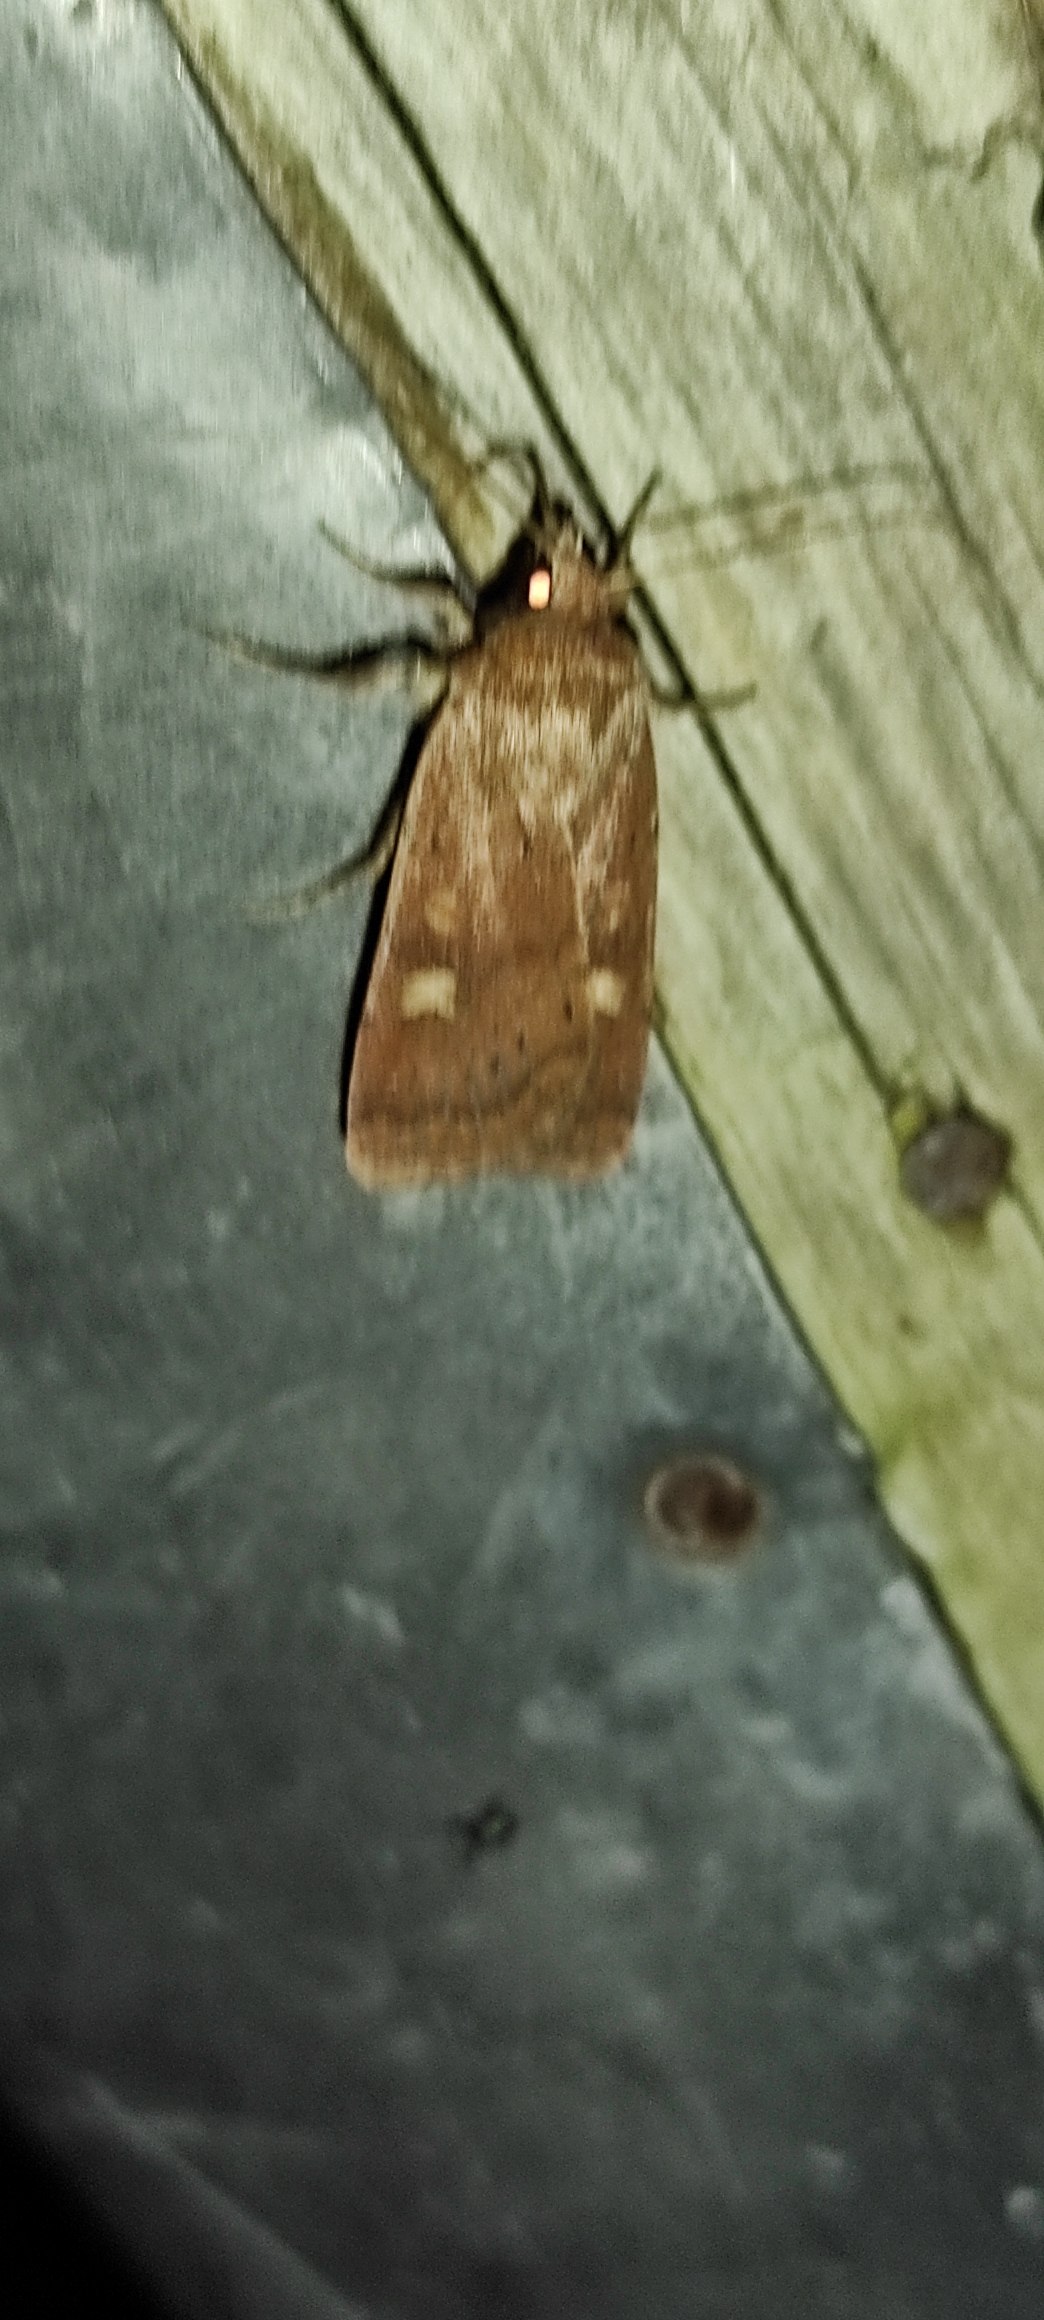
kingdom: Animalia
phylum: Arthropoda
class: Insecta
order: Lepidoptera
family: Noctuidae
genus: Xestia
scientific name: Xestia xanthographa
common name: Gulmærket glansugle
